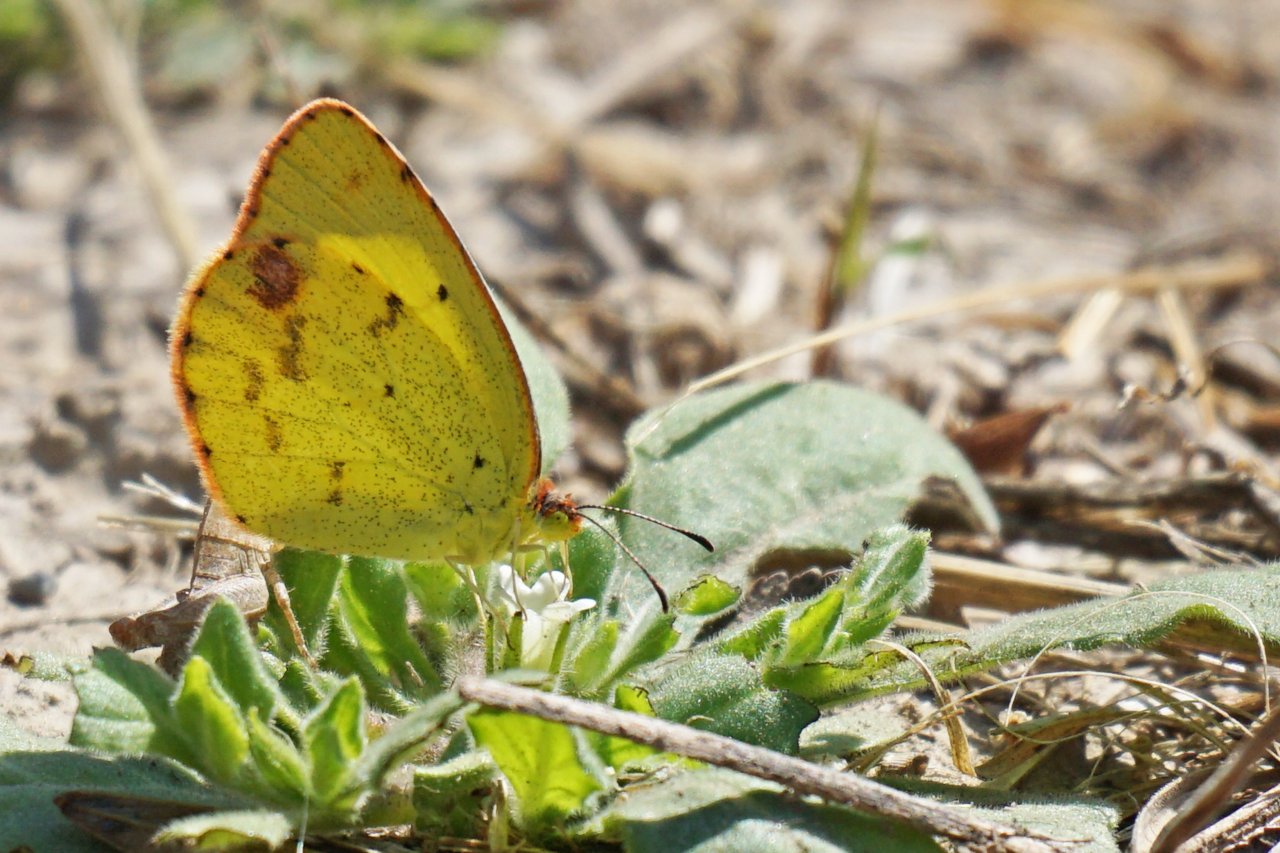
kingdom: Animalia
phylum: Arthropoda
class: Insecta
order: Lepidoptera
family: Pieridae
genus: Pyrisitia
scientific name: Pyrisitia lisa
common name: Little Yellow
